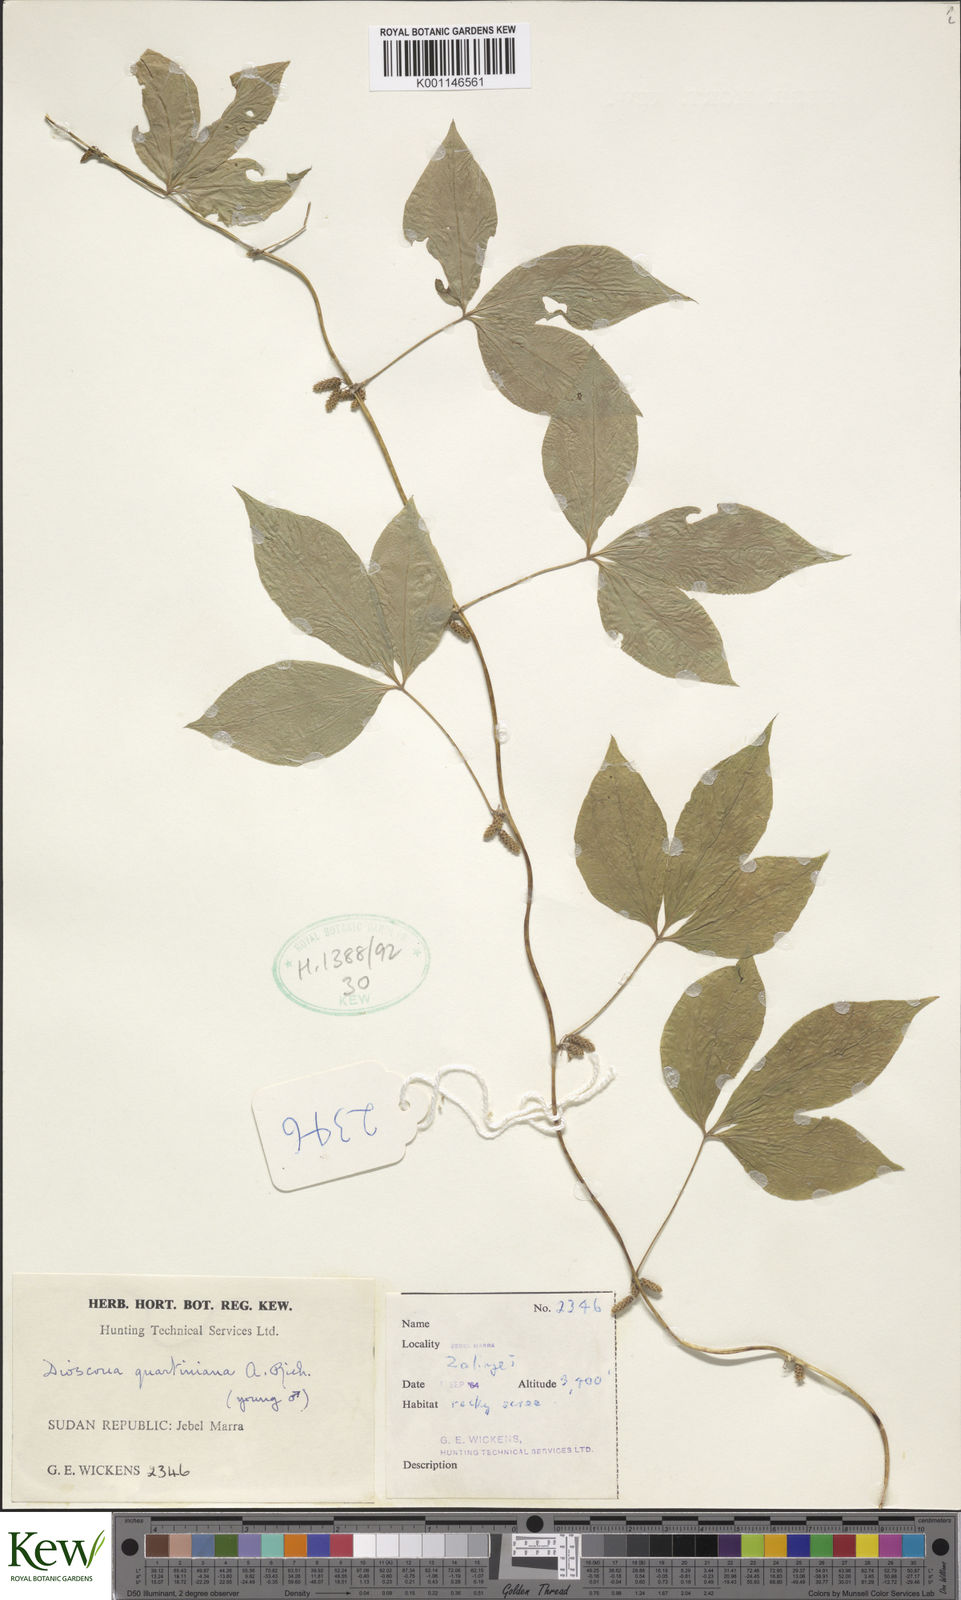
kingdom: Plantae
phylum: Tracheophyta
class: Liliopsida
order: Dioscoreales
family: Dioscoreaceae
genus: Dioscorea
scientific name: Dioscorea quartiniana
